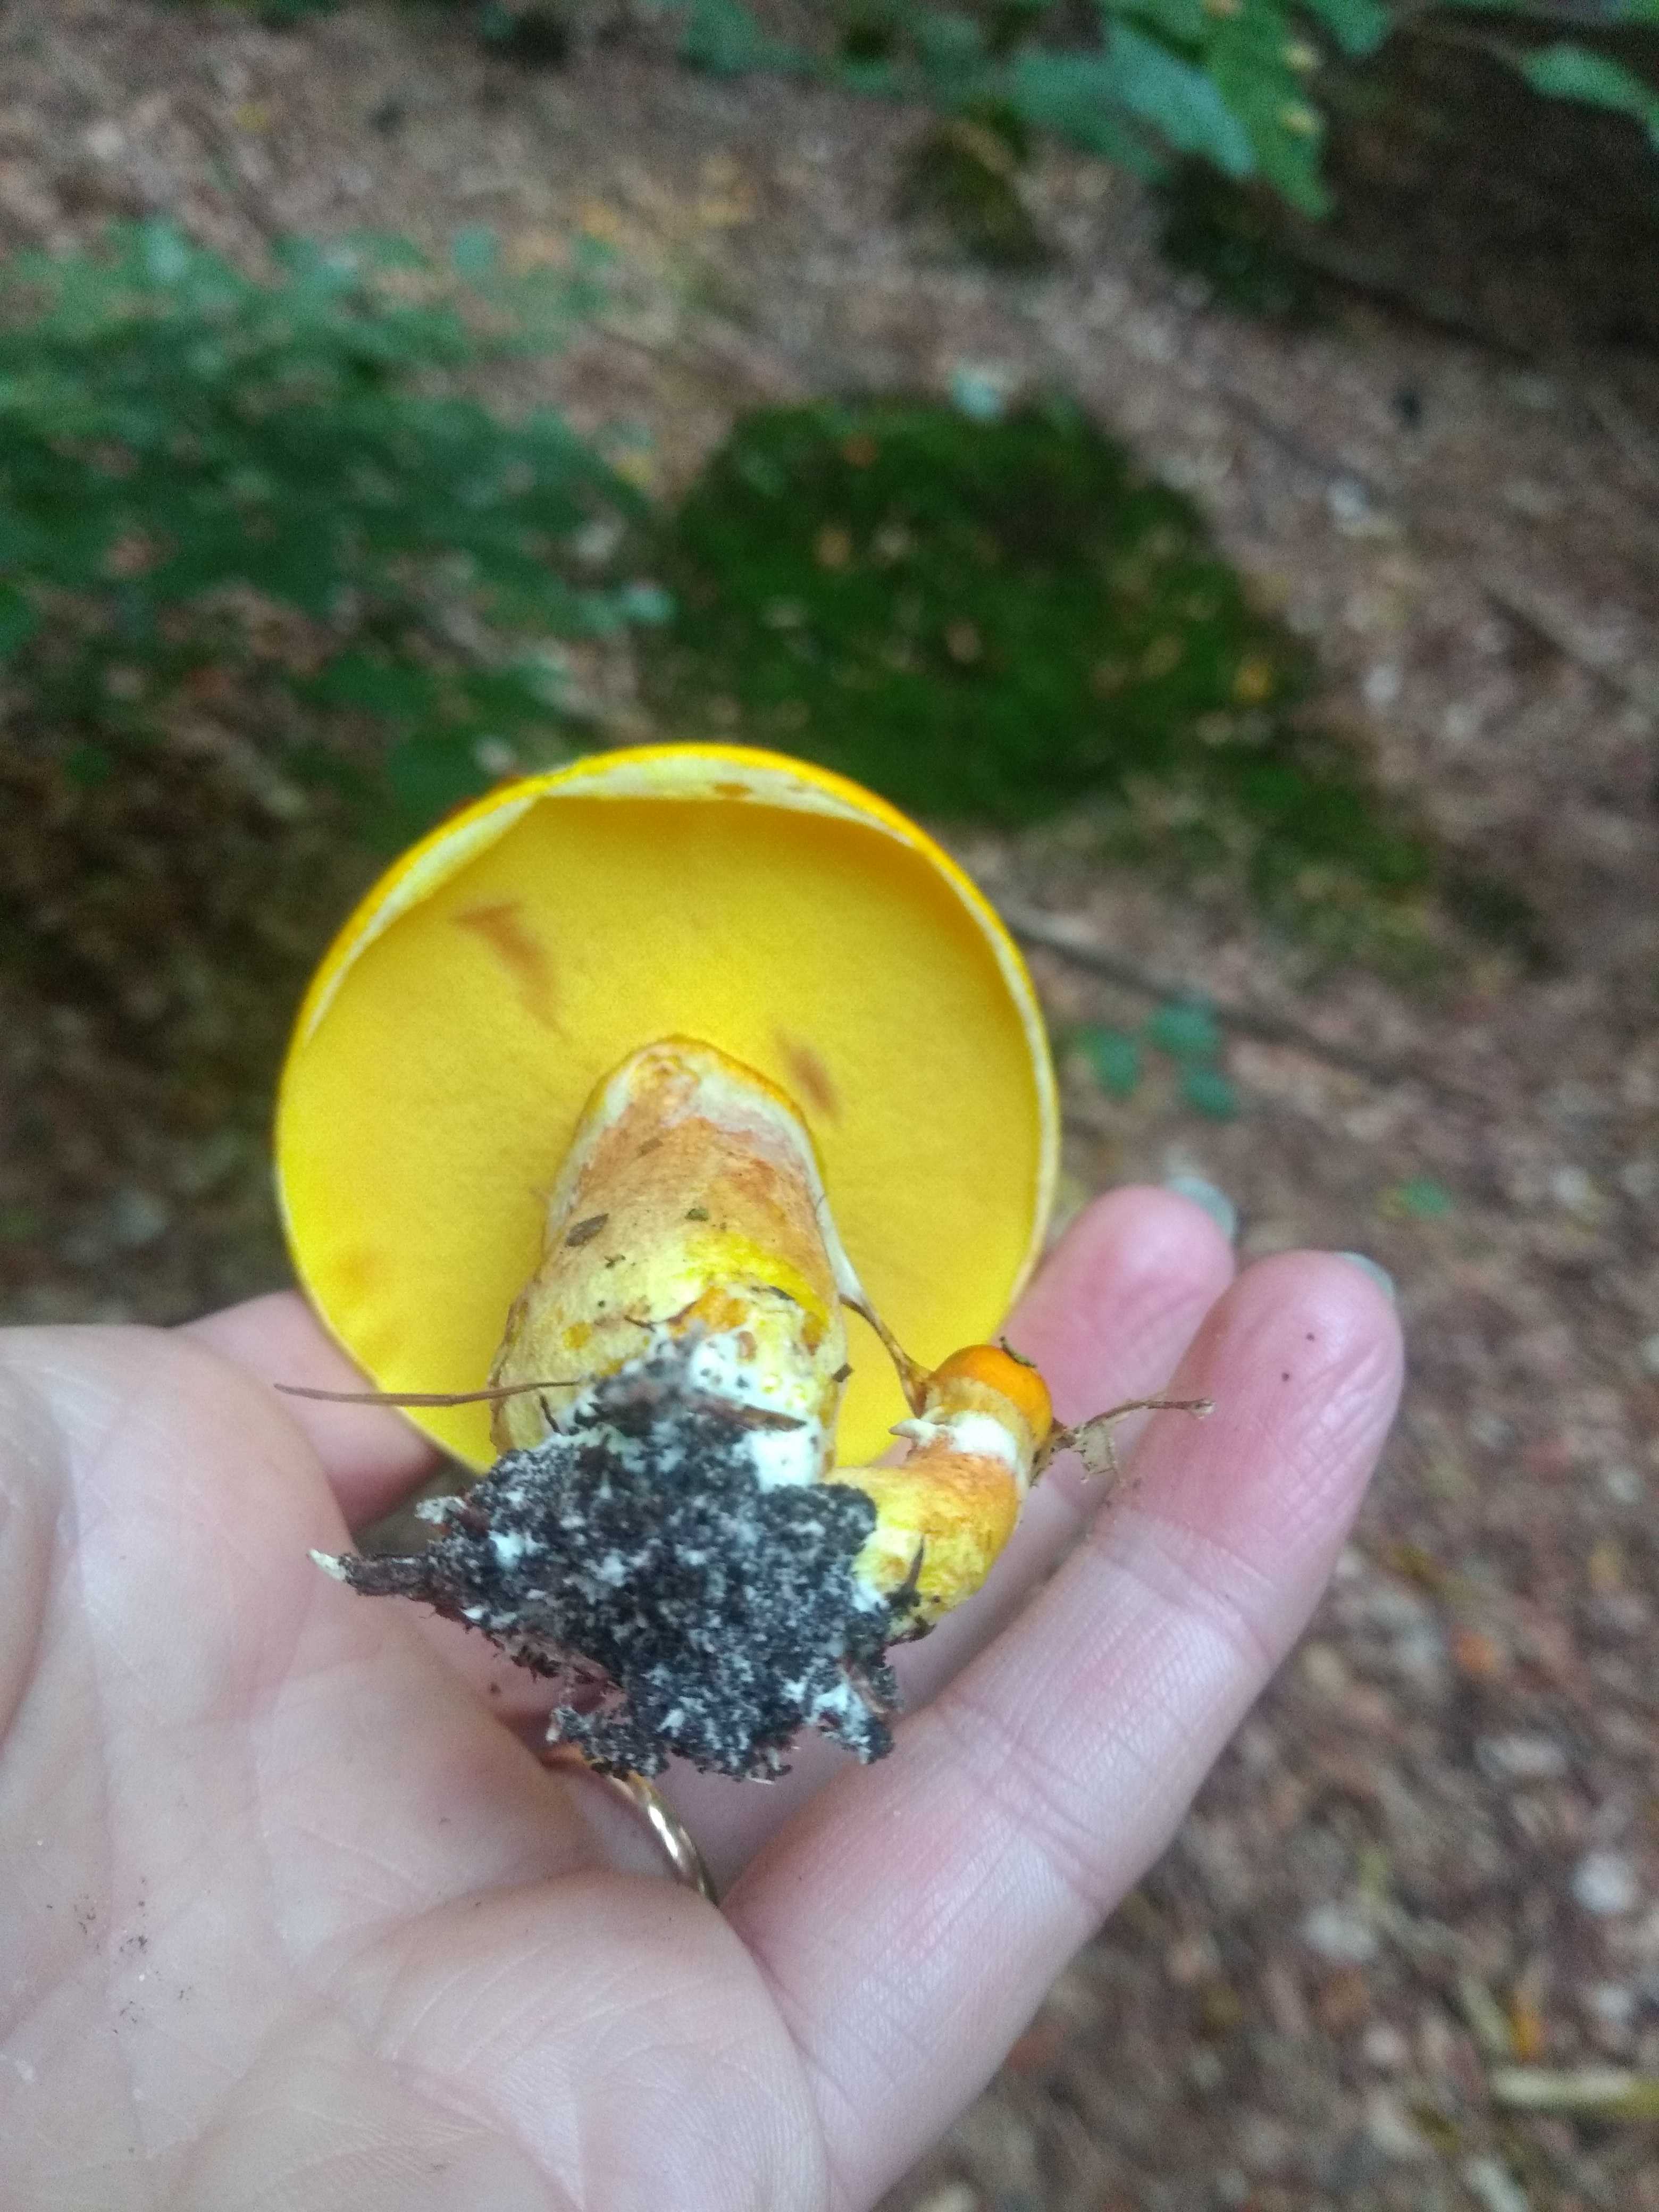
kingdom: Fungi
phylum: Basidiomycota
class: Agaricomycetes
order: Boletales
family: Suillaceae
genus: Suillus
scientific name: Suillus grevillei
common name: lærke-slimrørhat
